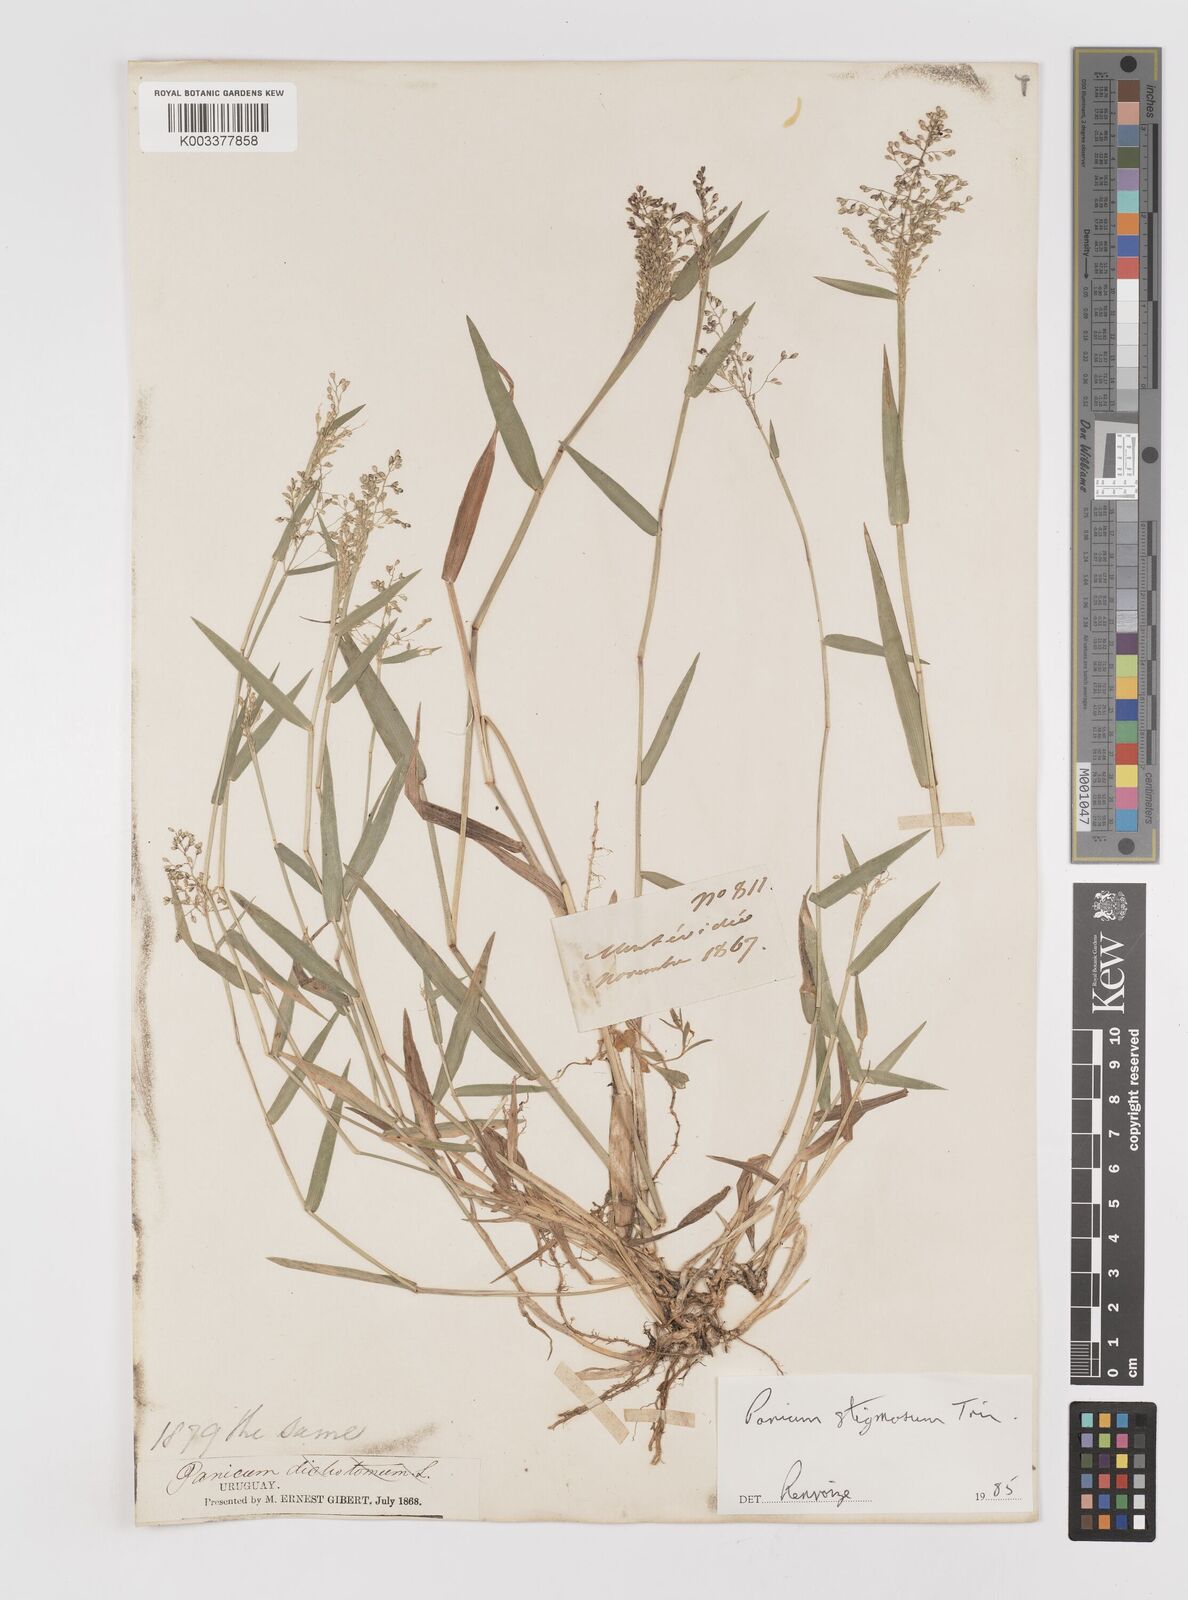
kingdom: Plantae
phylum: Tracheophyta
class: Liliopsida
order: Poales
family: Poaceae
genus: Dichanthelium
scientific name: Dichanthelium stigmosum
